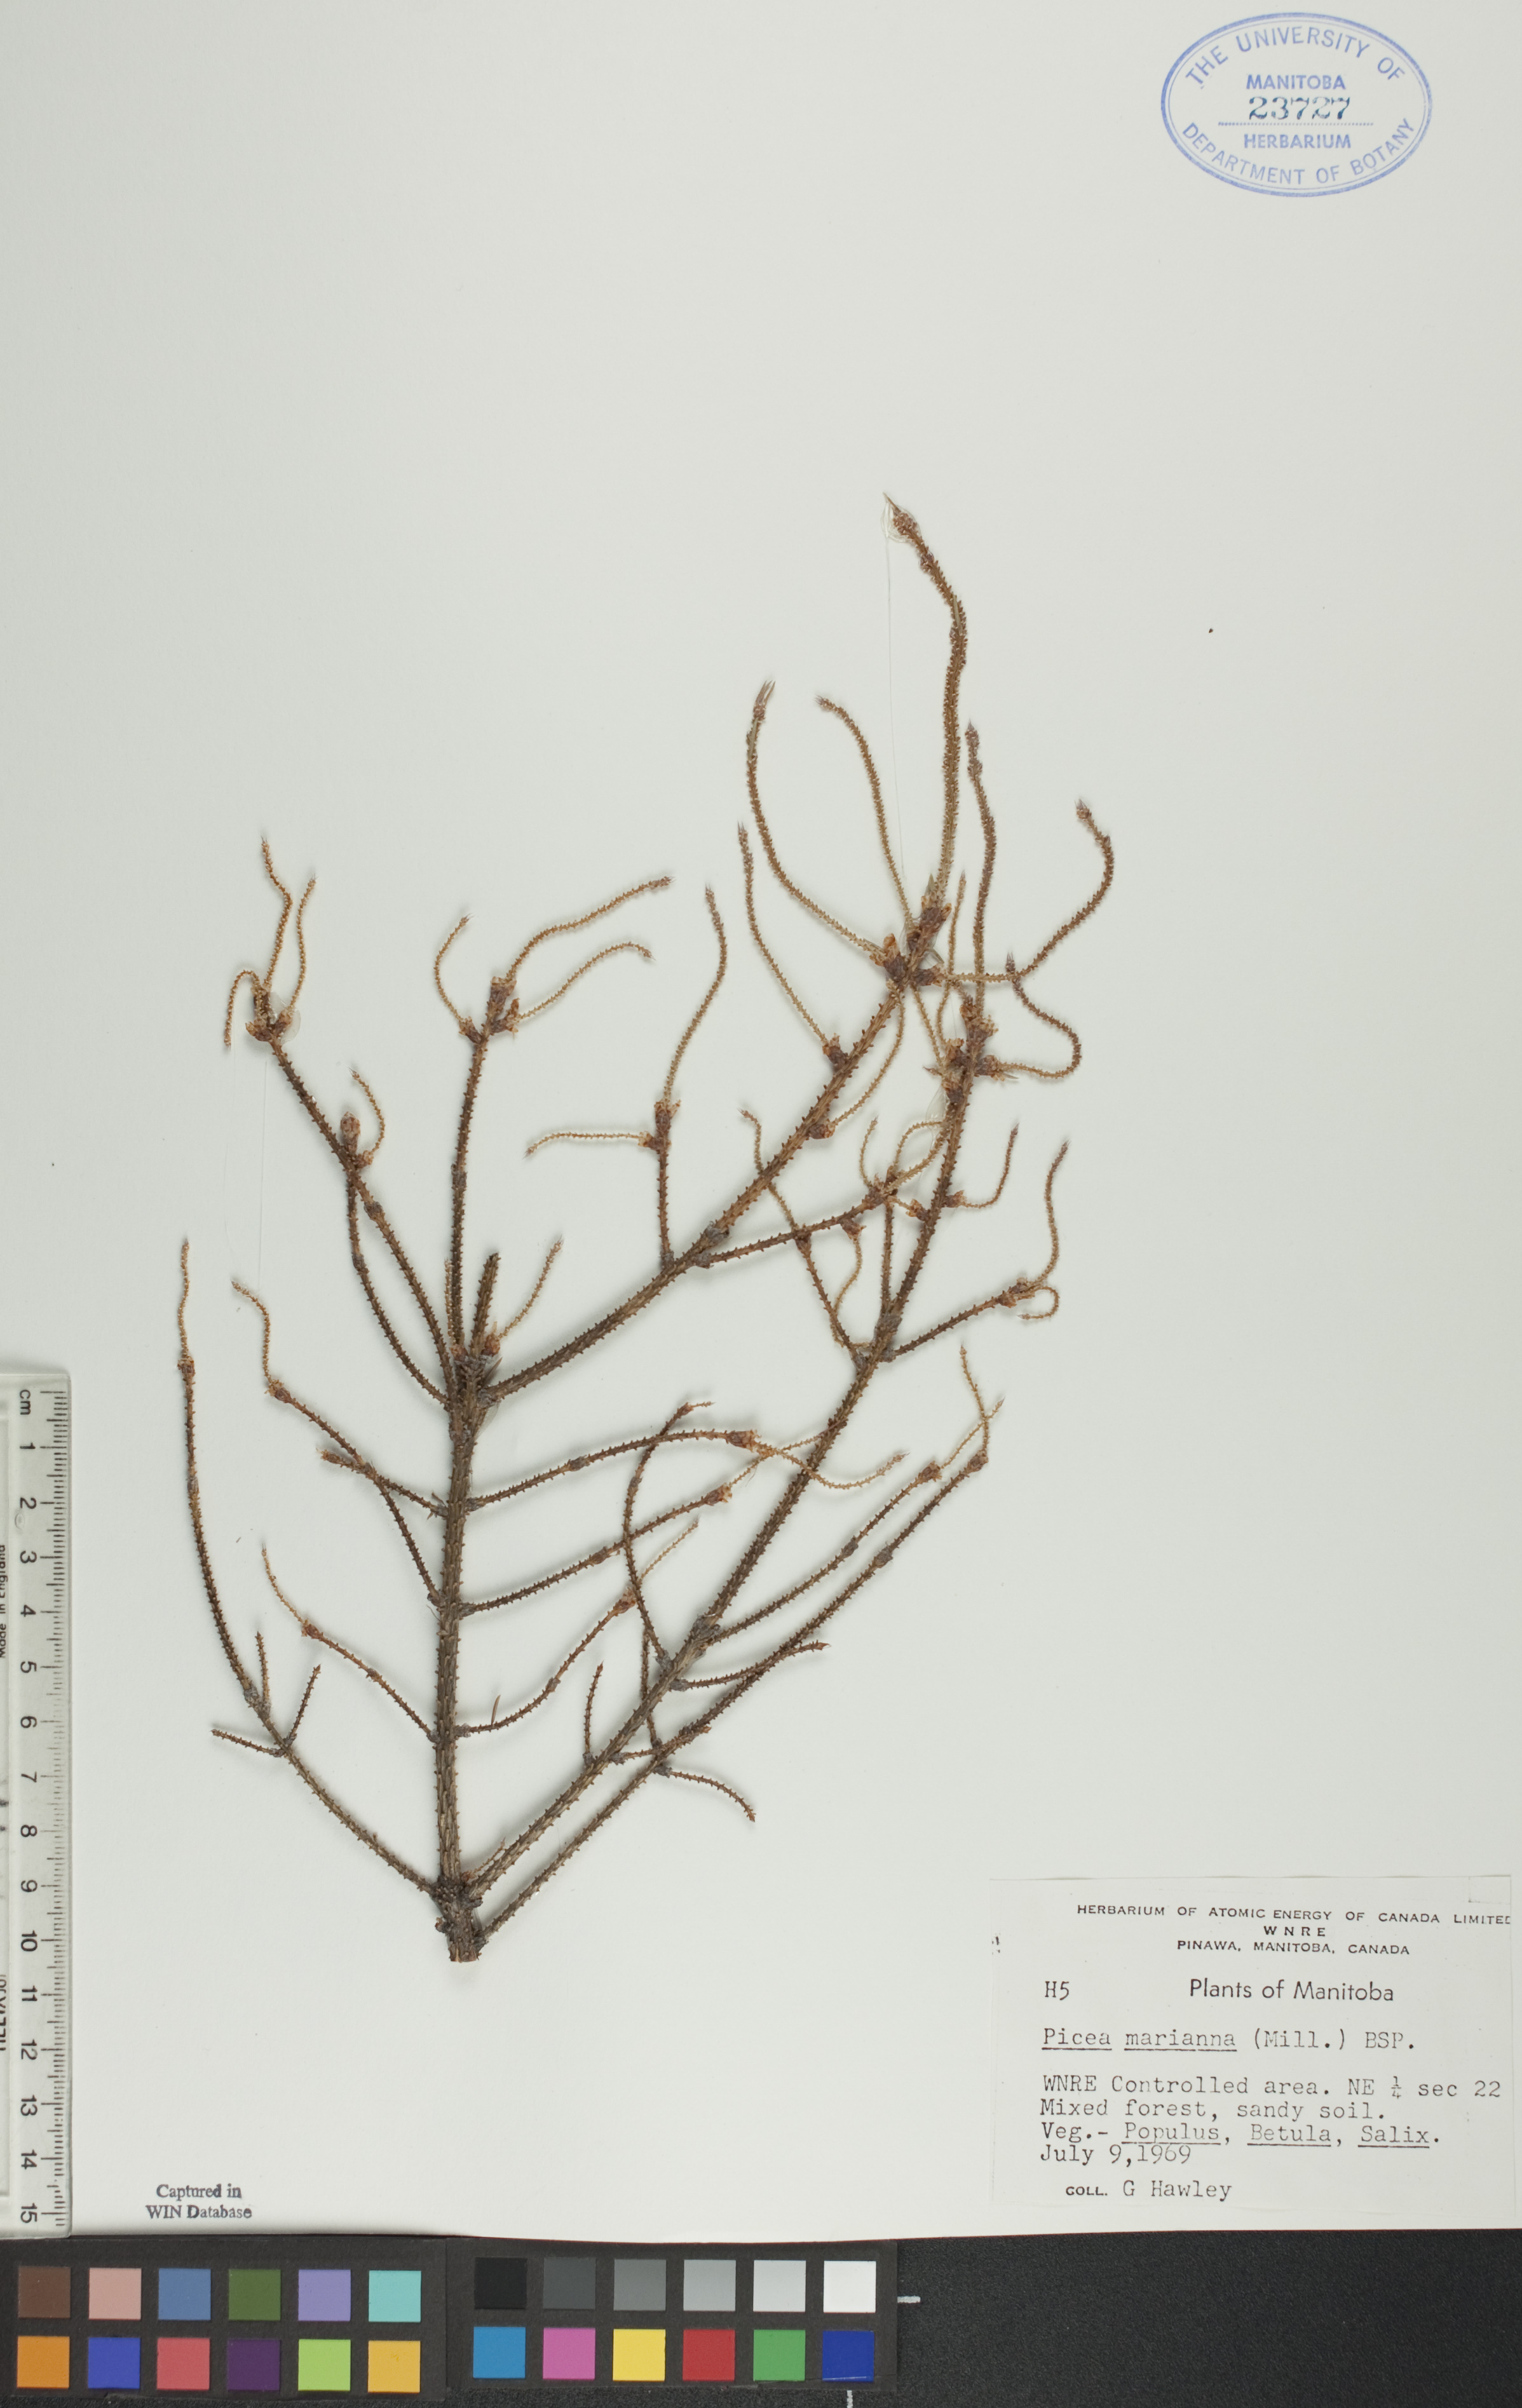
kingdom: Plantae
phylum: Tracheophyta
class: Pinopsida
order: Pinales
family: Pinaceae
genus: Picea
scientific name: Picea mariana
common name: Black spruce
